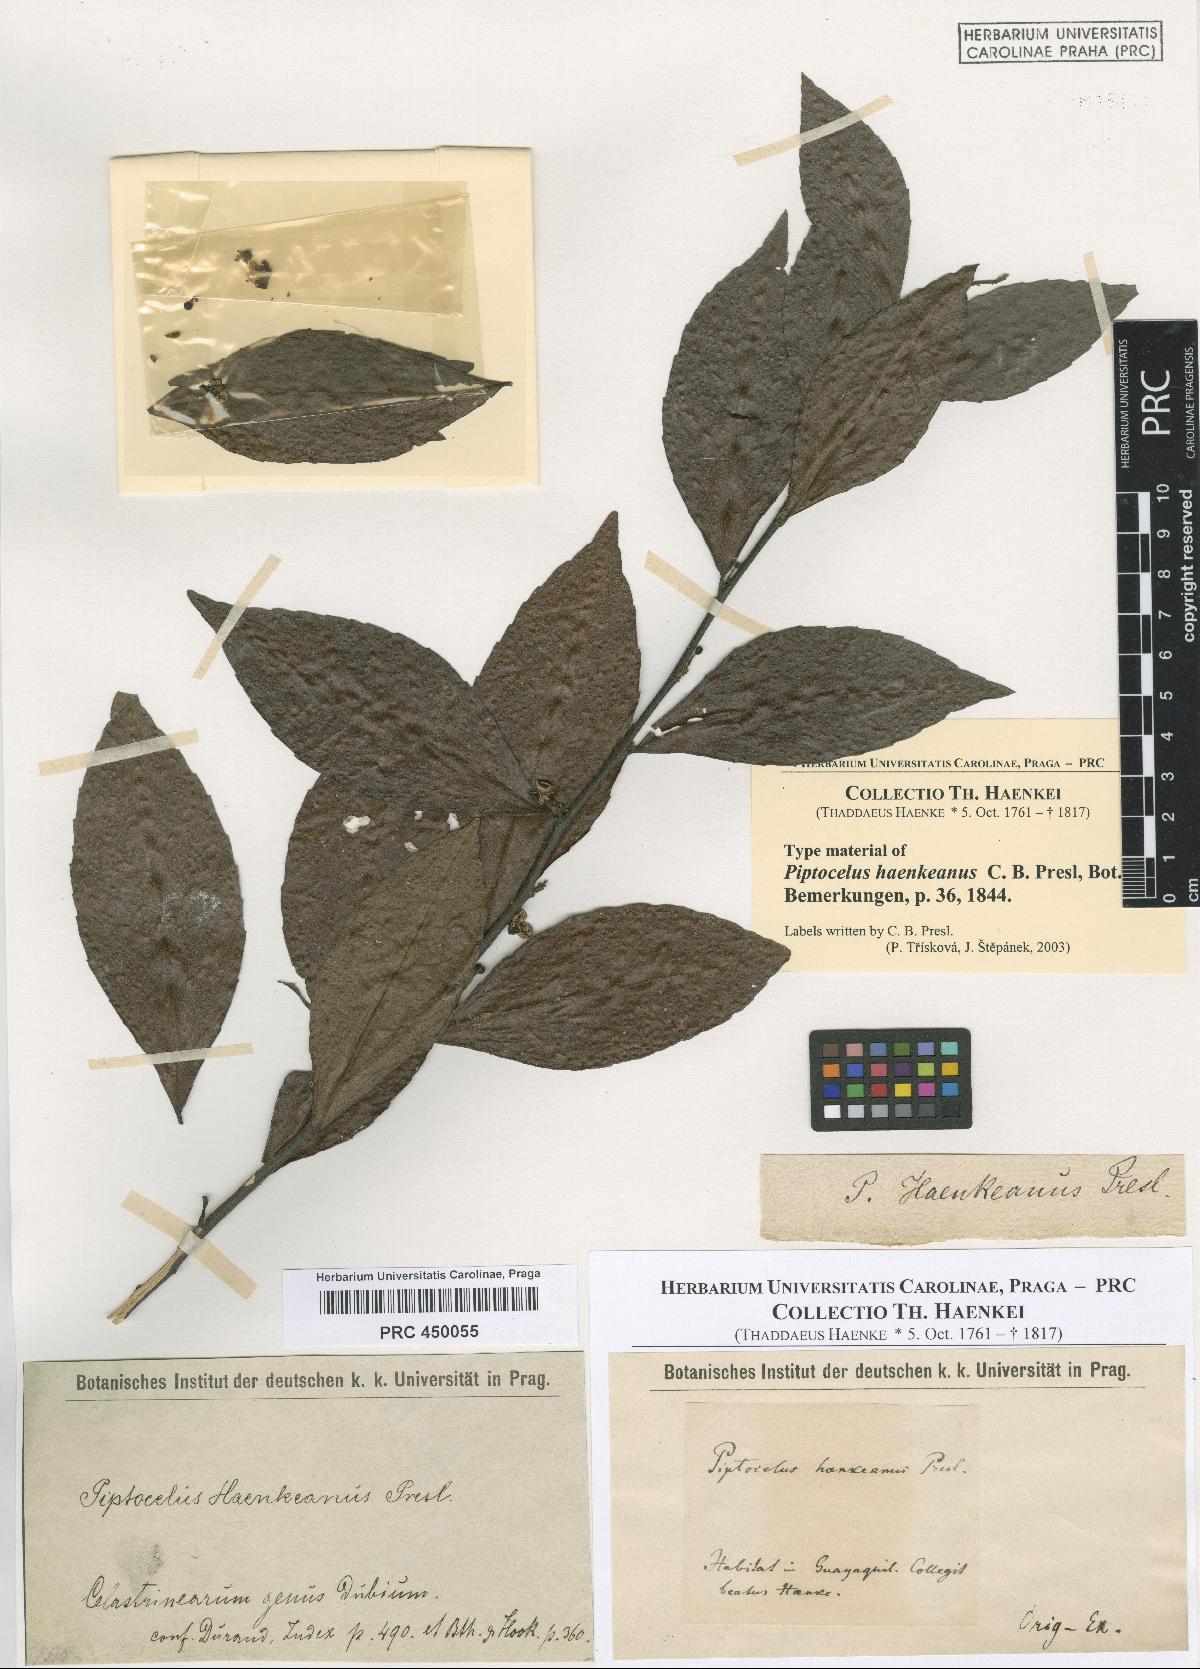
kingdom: Plantae
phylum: Tracheophyta
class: Magnoliopsida
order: Sapindales
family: Anacardiaceae
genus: Piptocelus
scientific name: Piptocelus haenkeanus
